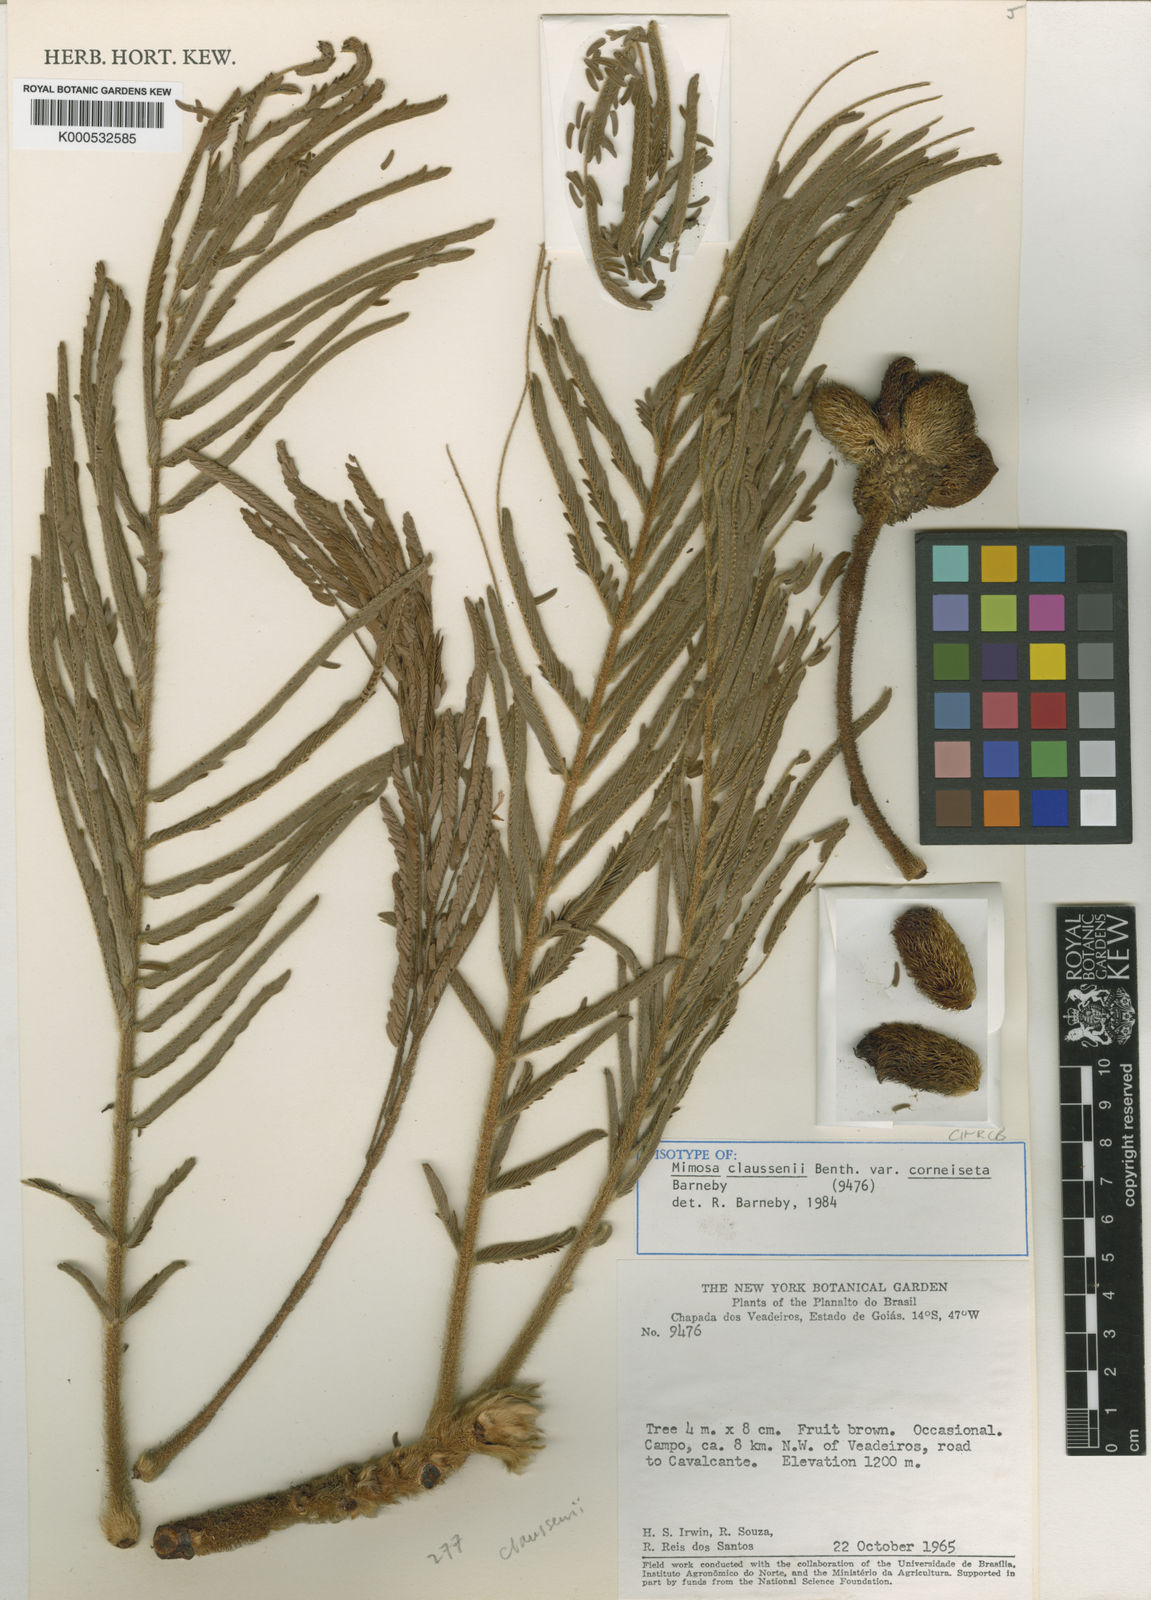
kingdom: Plantae
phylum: Tracheophyta
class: Magnoliopsida
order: Fabales
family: Fabaceae
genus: Mimosa
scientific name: Mimosa claussenii
